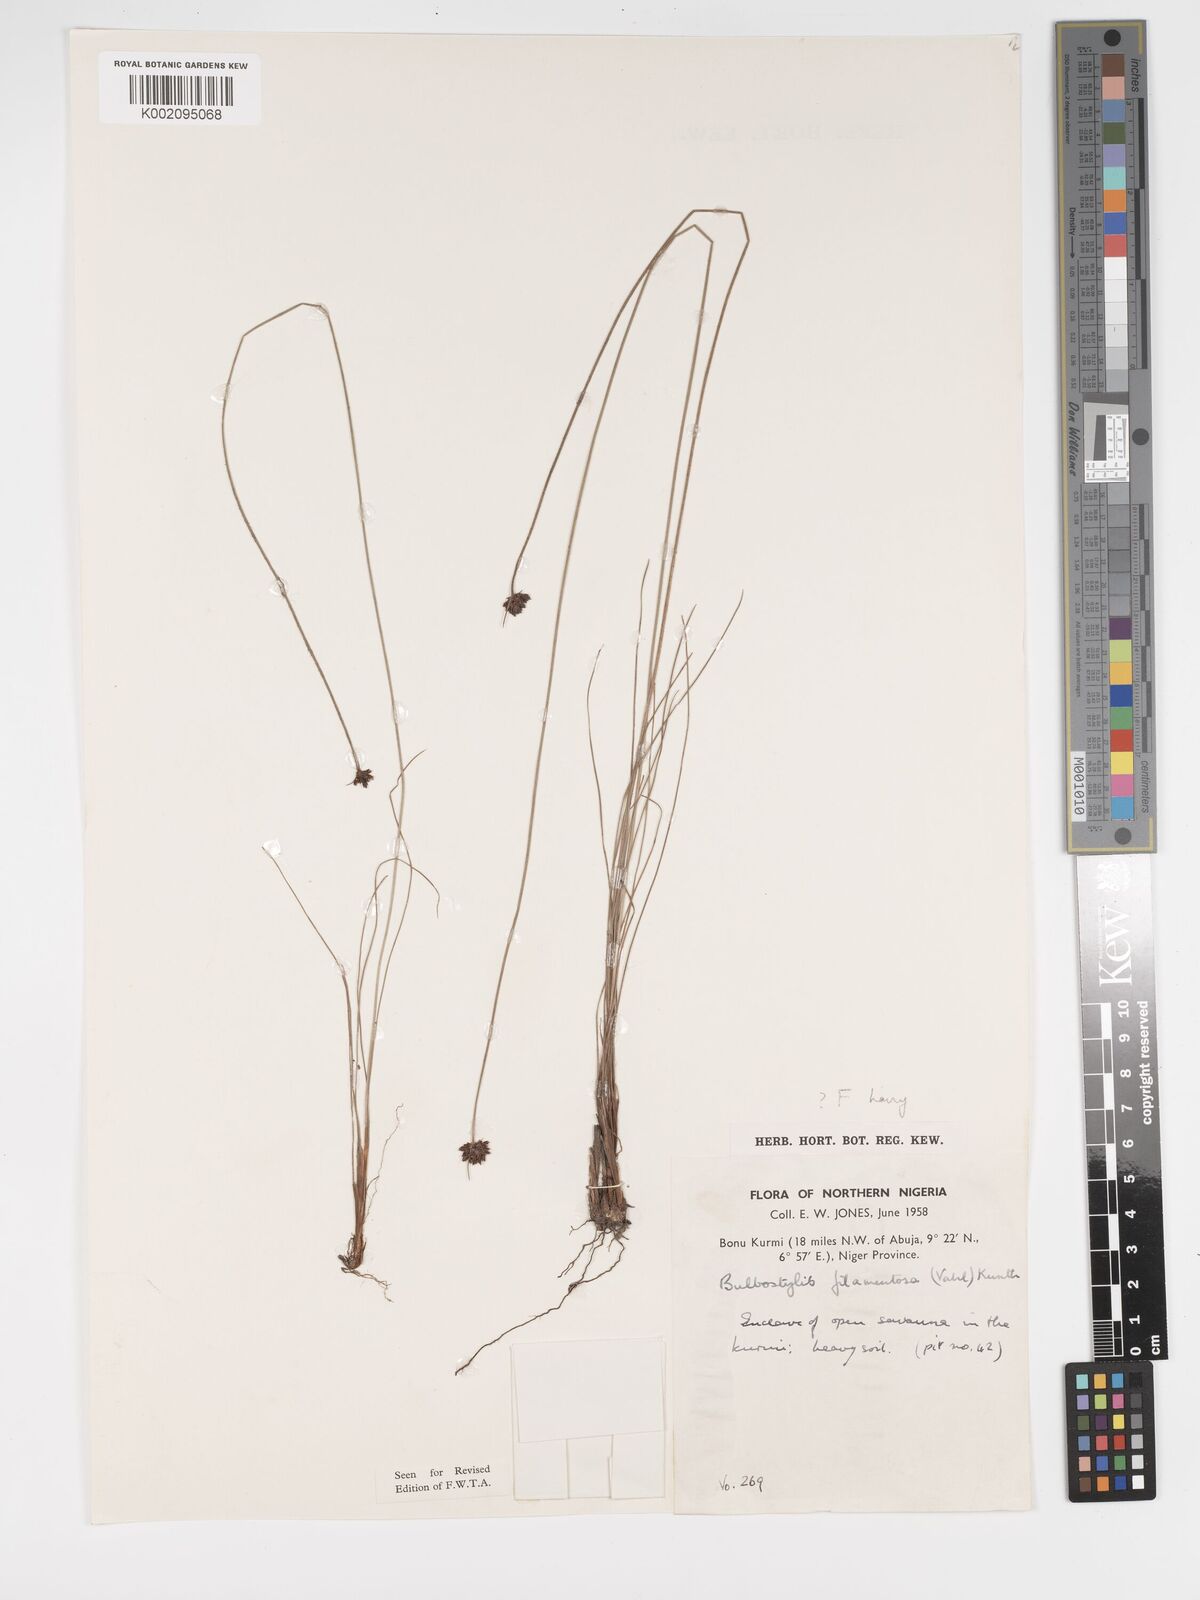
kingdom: Plantae
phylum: Tracheophyta
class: Liliopsida
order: Poales
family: Cyperaceae
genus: Bulbostylis
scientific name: Bulbostylis scabricaulis
